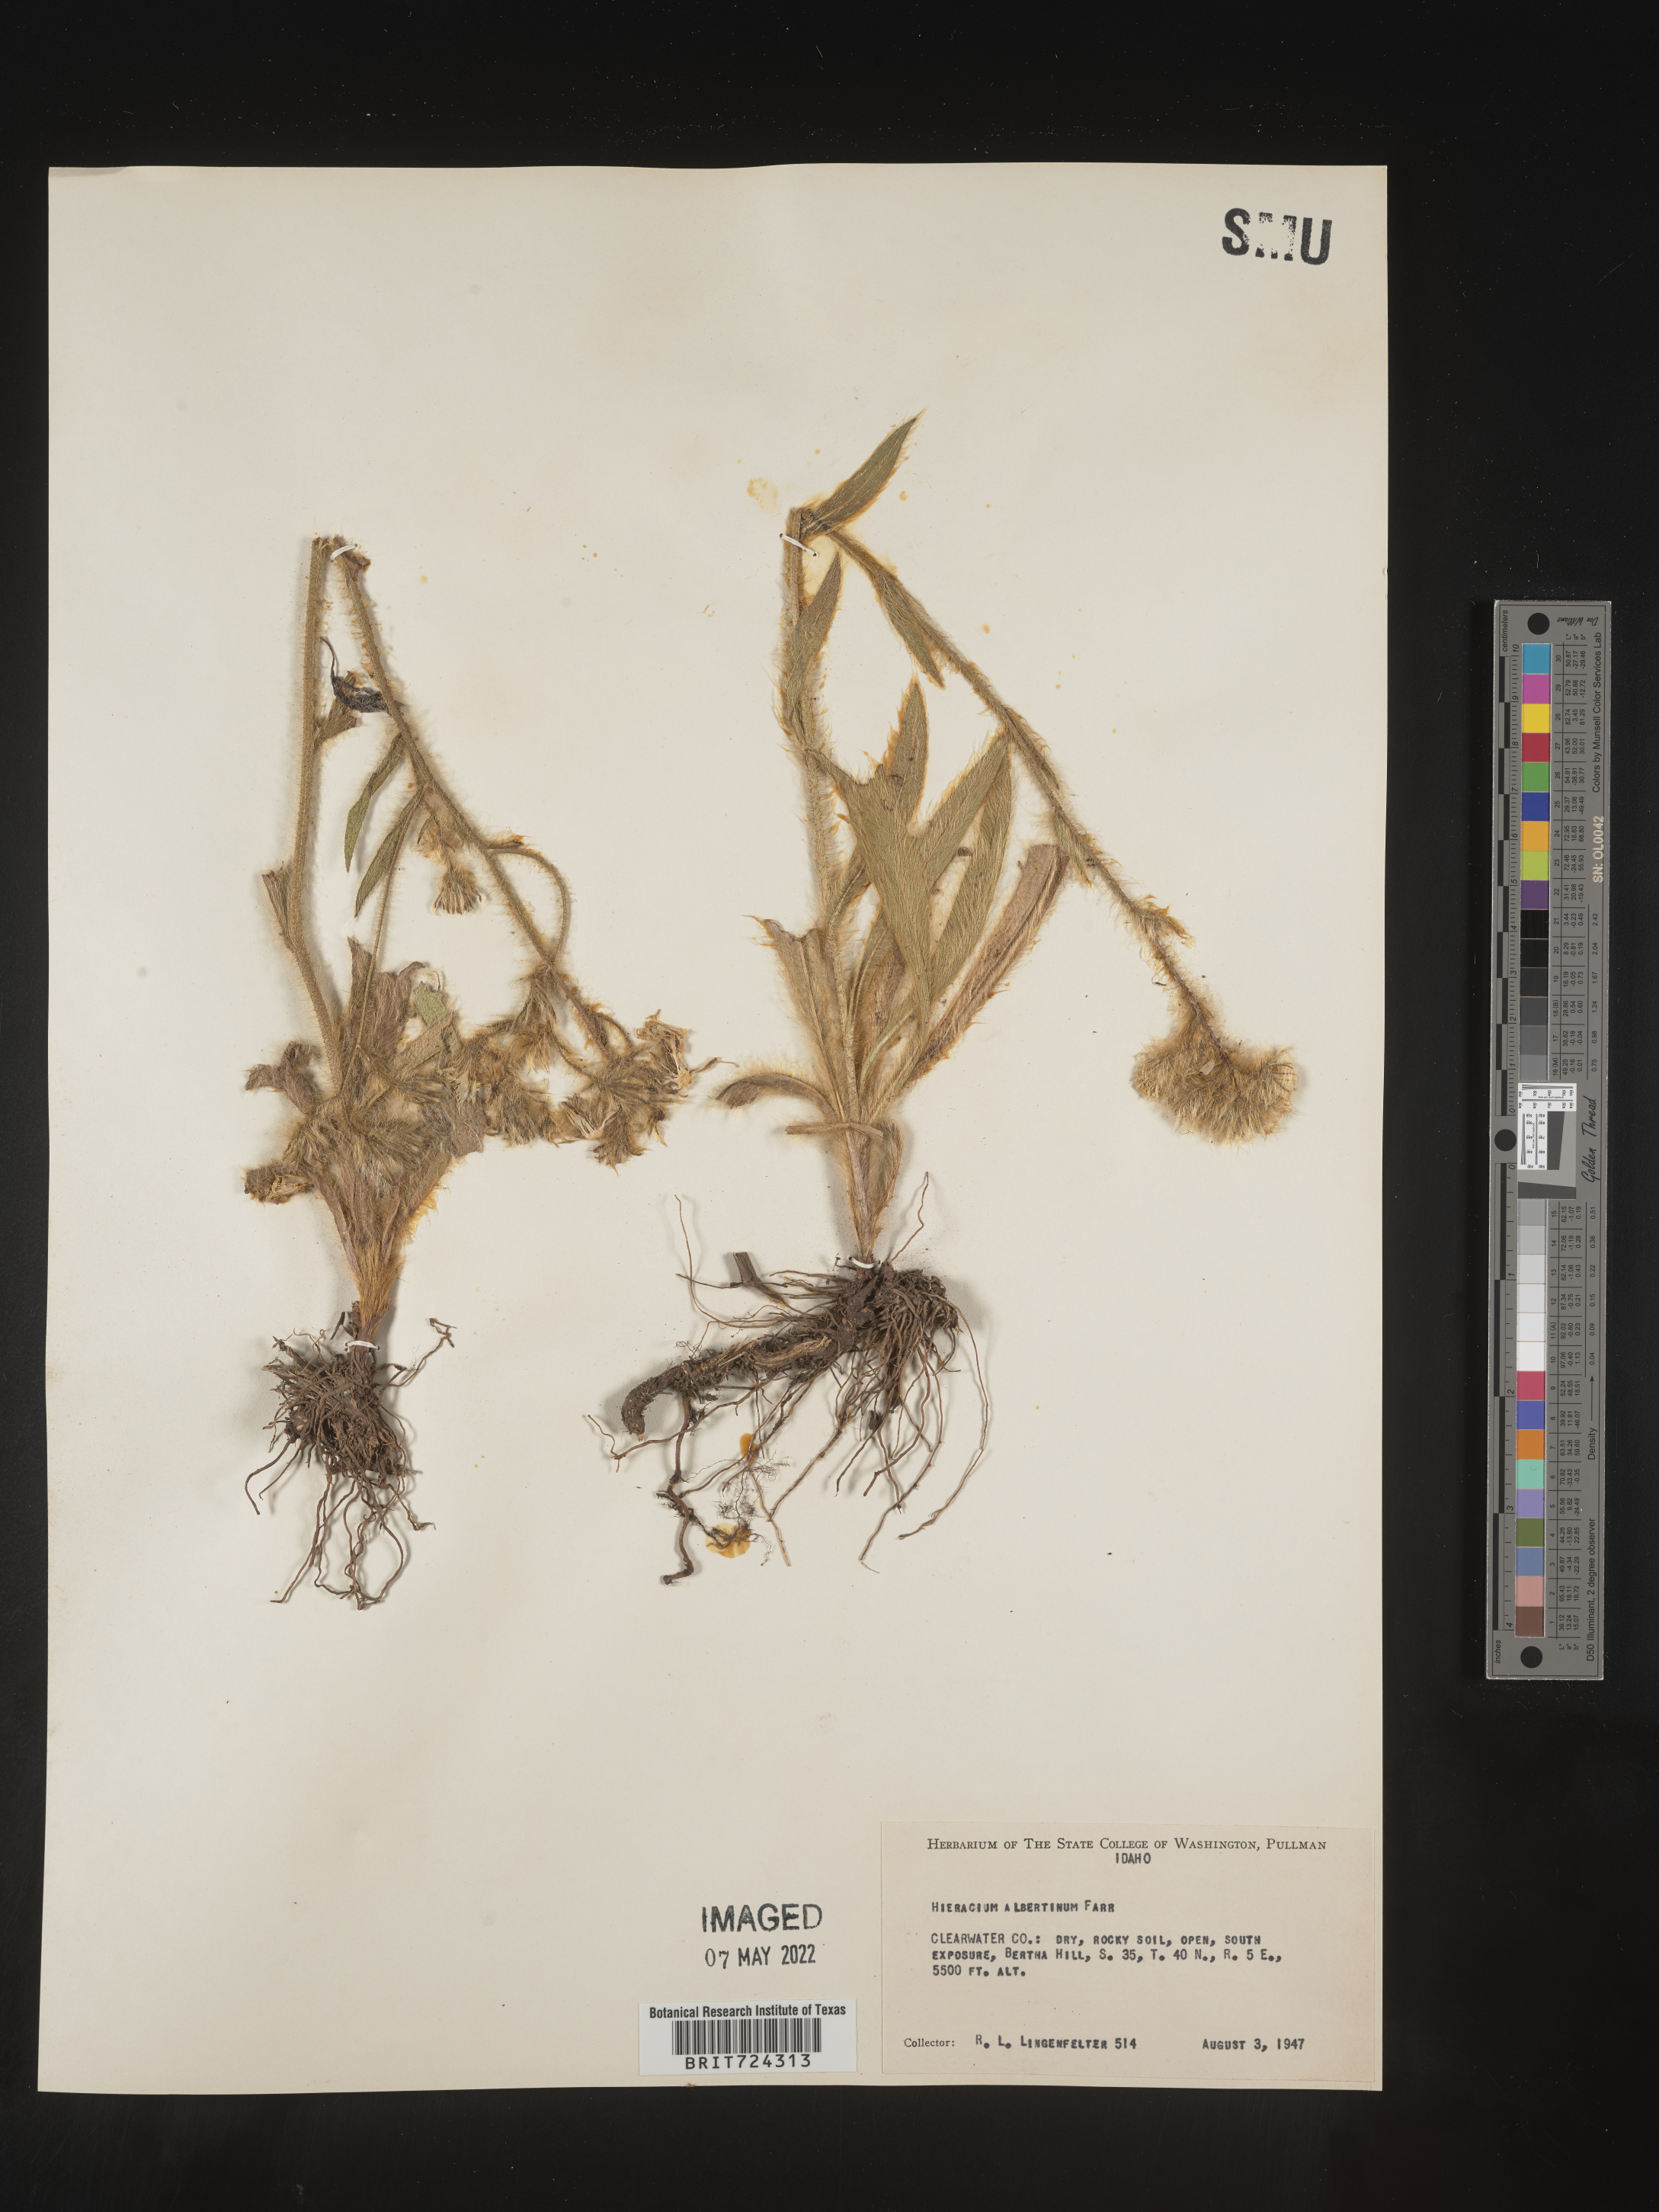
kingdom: Plantae
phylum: Tracheophyta
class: Magnoliopsida
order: Asterales
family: Asteraceae
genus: Hieracium
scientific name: Hieracium scouleri
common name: Hound's-tongue hawkweed
